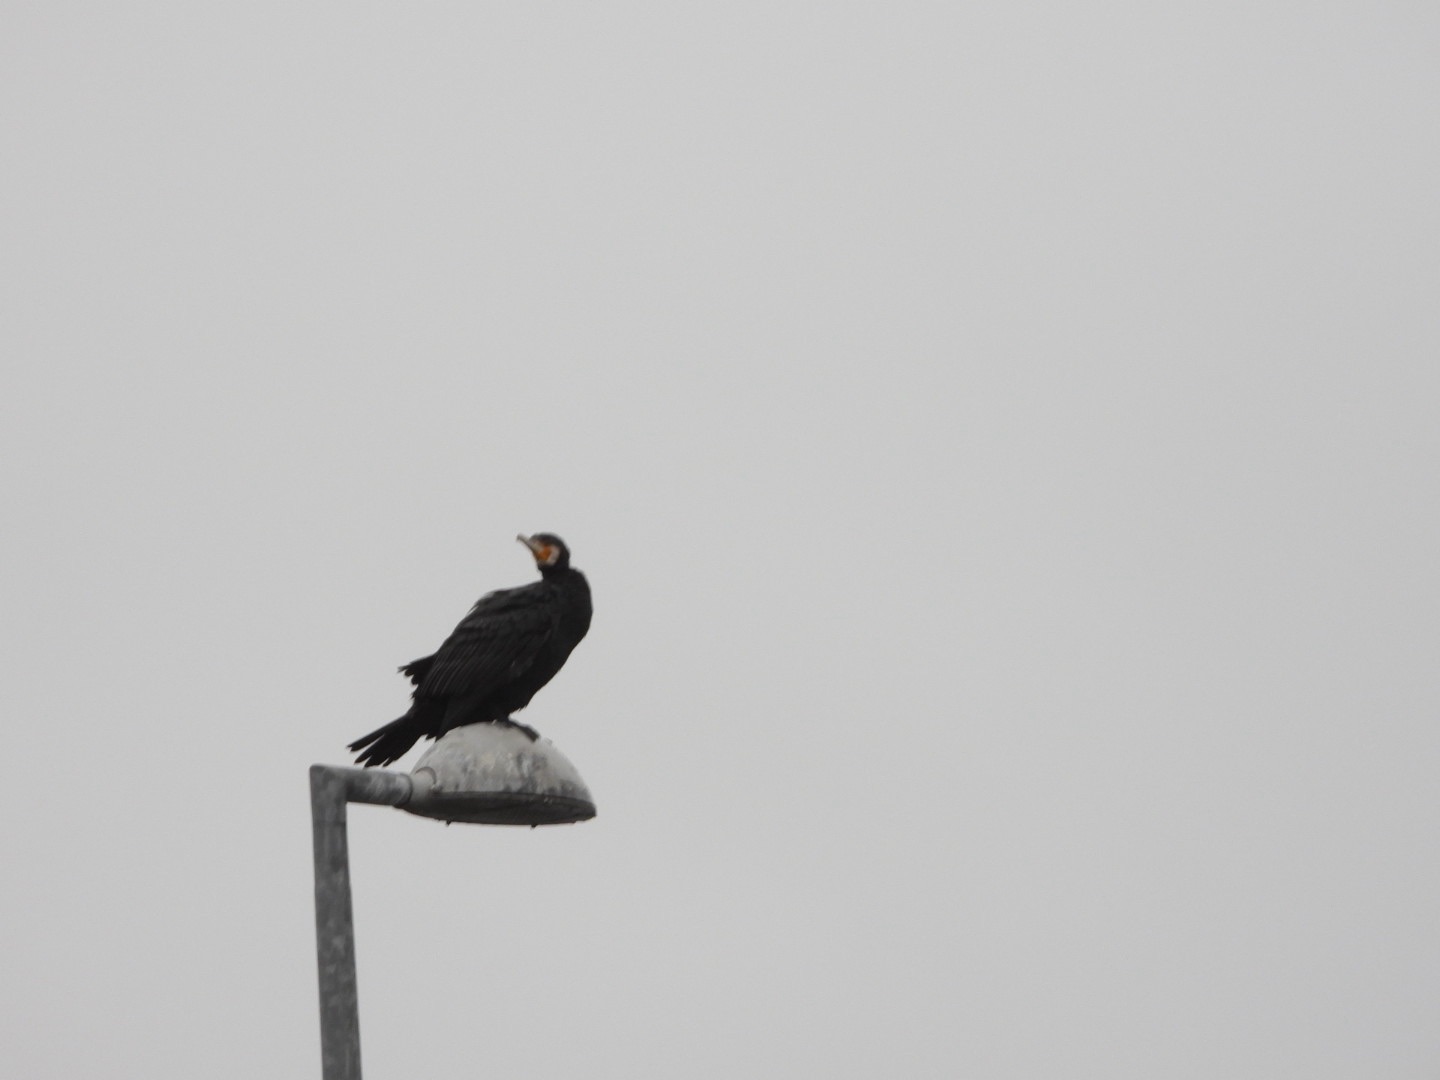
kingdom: Animalia
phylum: Chordata
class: Aves
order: Suliformes
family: Phalacrocoracidae
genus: Phalacrocorax
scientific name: Phalacrocorax carbo
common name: Skarv
